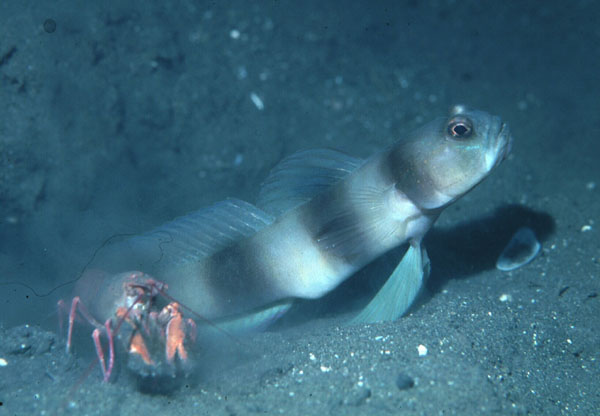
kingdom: Animalia
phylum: Chordata
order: Perciformes
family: Gobiidae
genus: Amblyeleotris
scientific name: Amblyeleotris fontanesii
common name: Giant shrimpgoby
